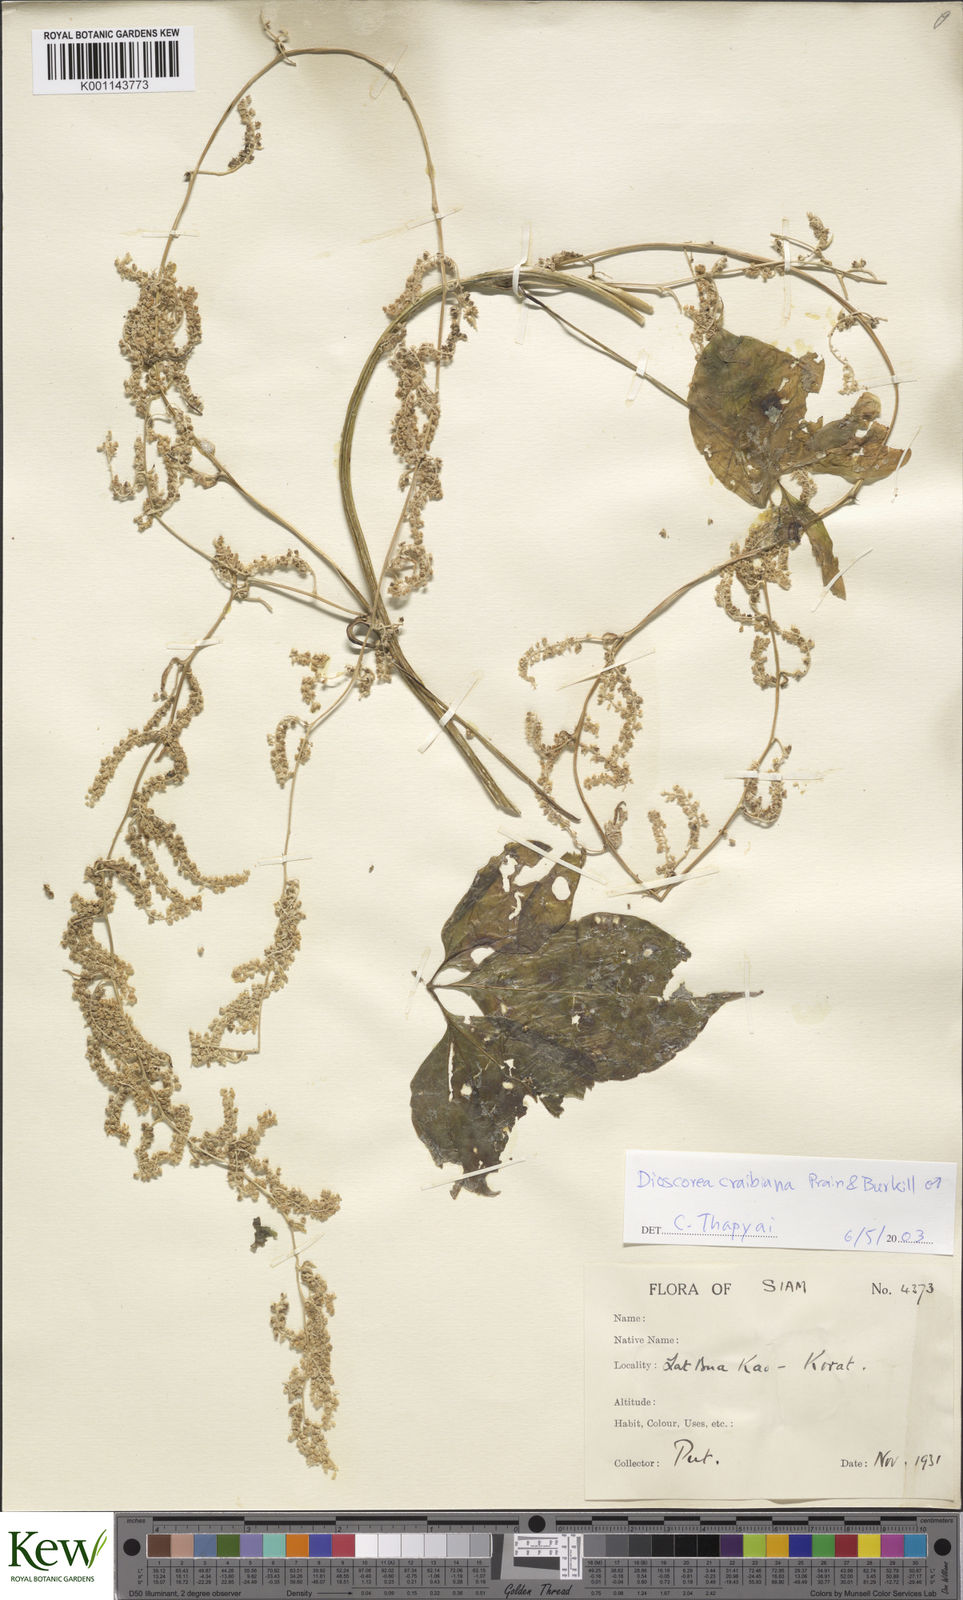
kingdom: Plantae
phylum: Tracheophyta
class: Liliopsida
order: Dioscoreales
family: Dioscoreaceae
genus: Dioscorea
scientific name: Dioscorea craibiana
